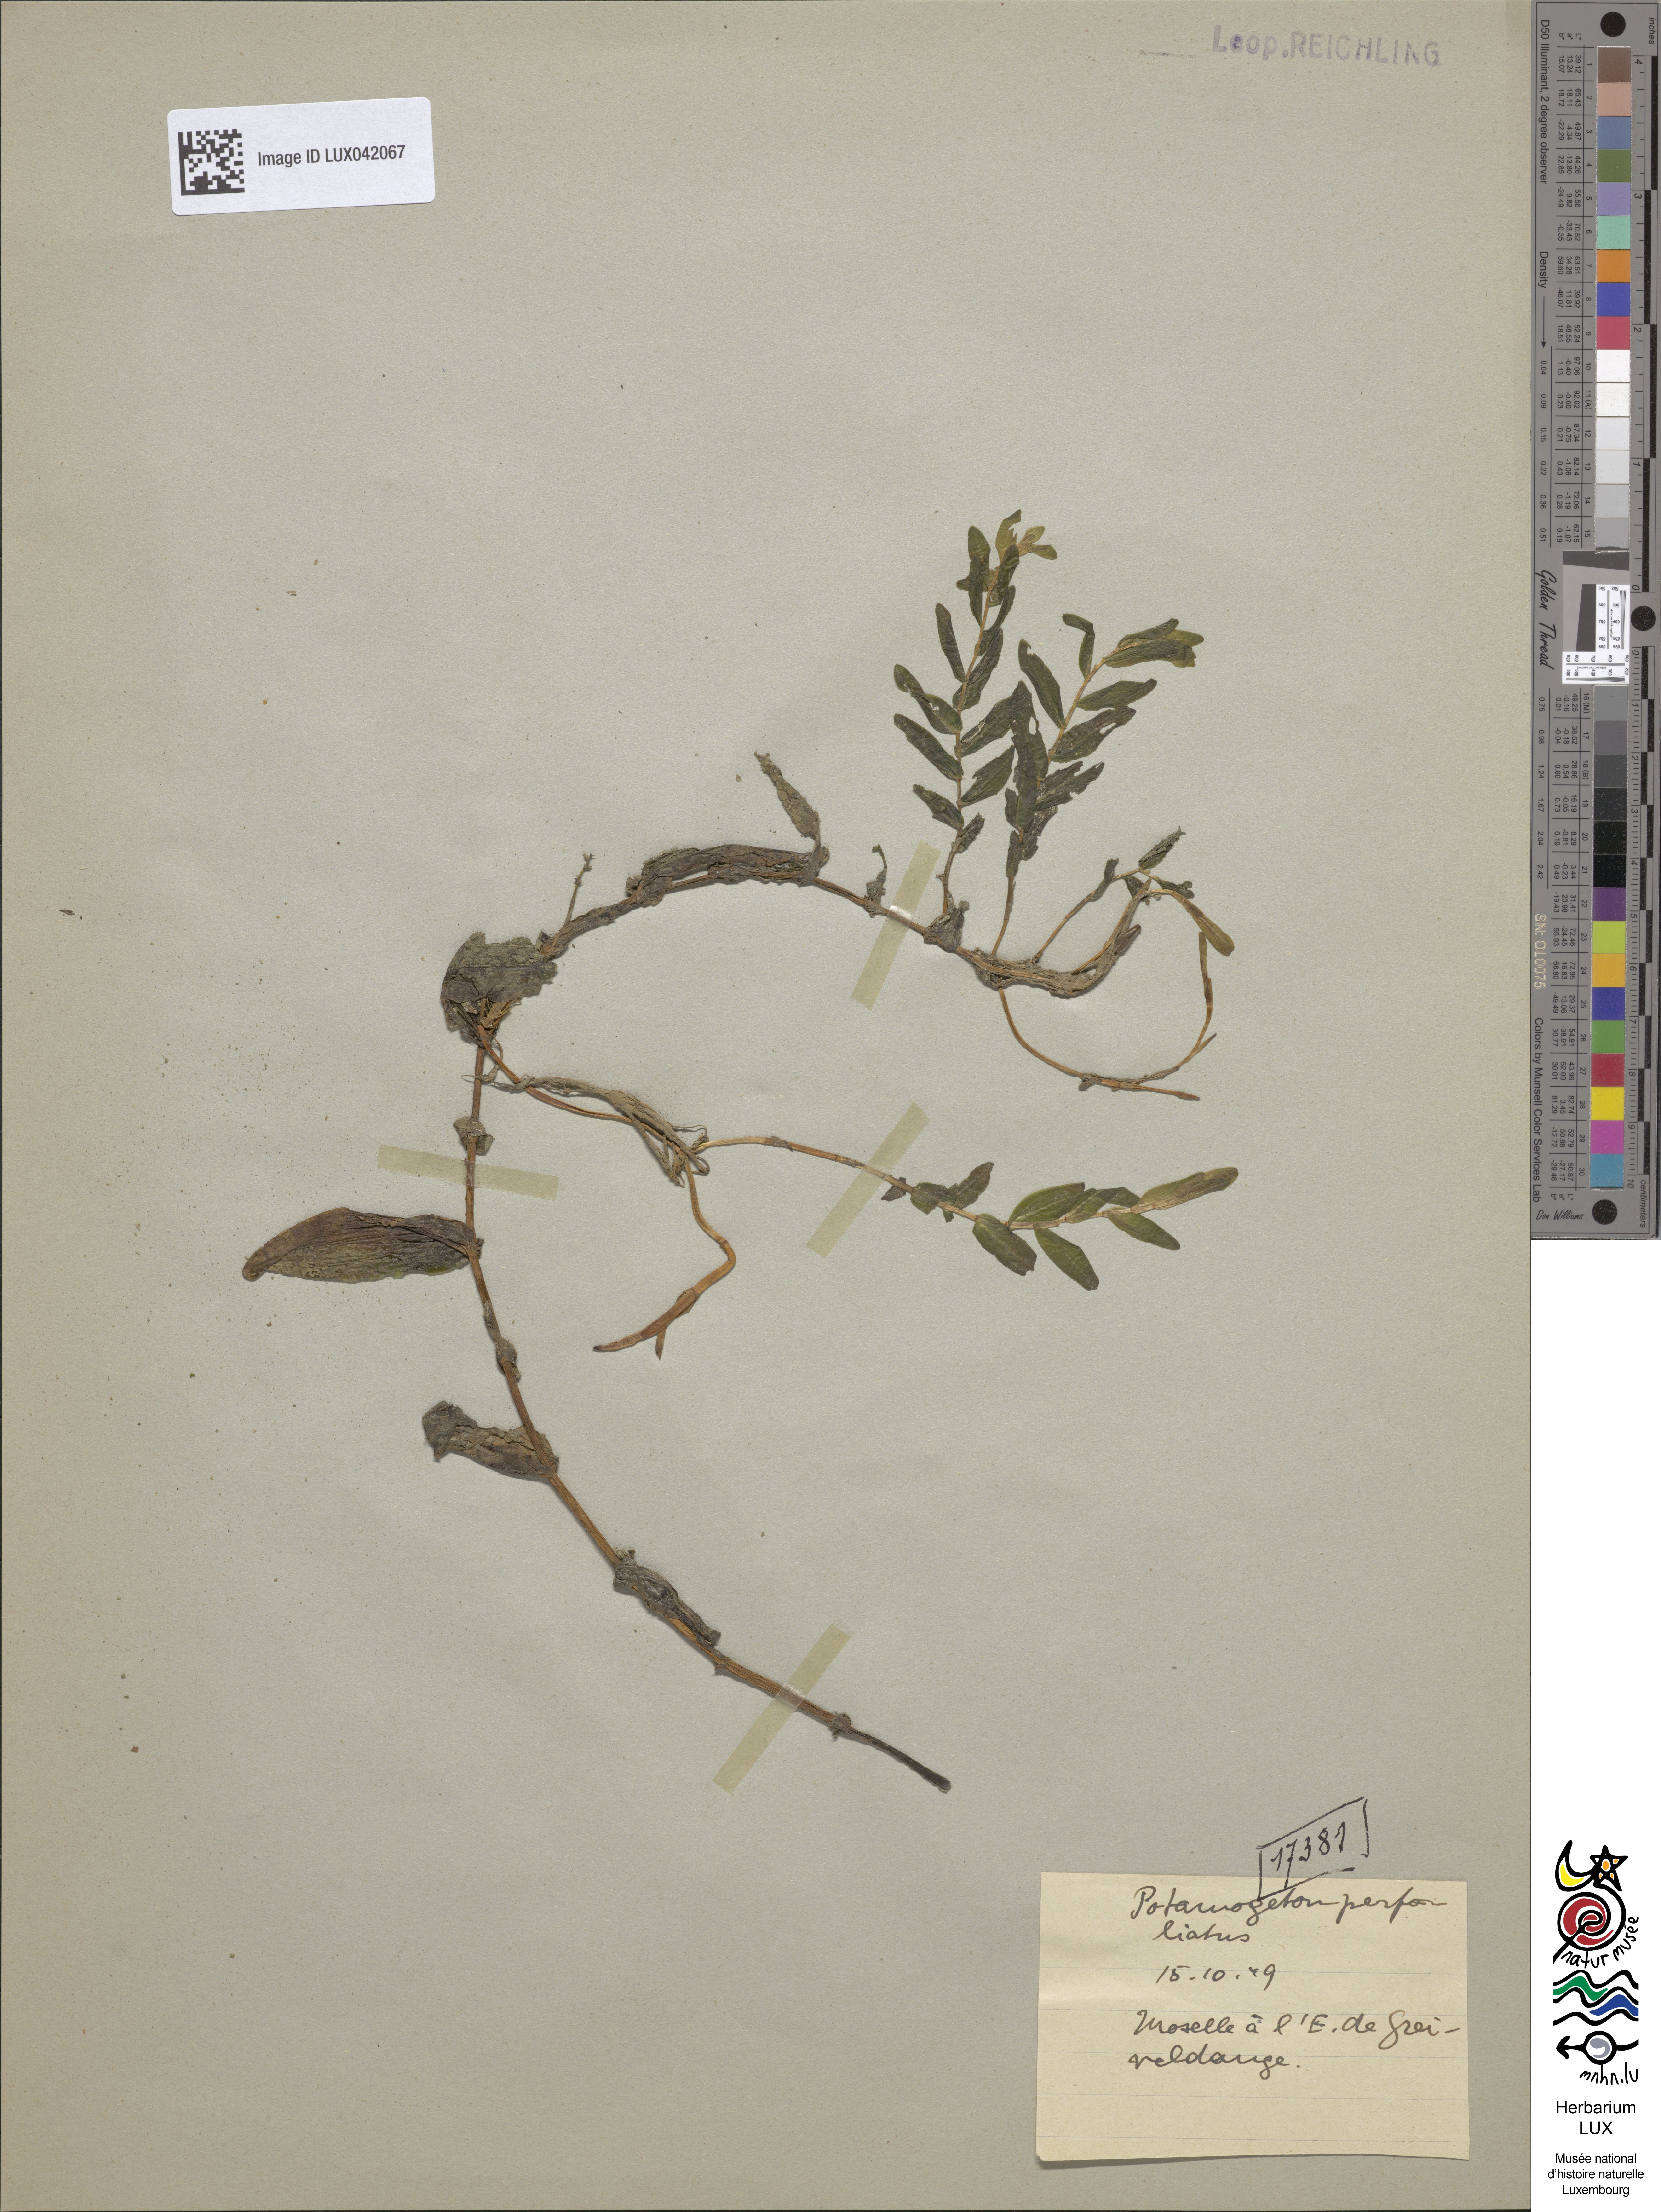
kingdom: Plantae
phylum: Tracheophyta
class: Liliopsida
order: Alismatales
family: Potamogetonaceae
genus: Potamogeton
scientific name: Potamogeton perfoliatus
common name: Perfoliate pondweed
